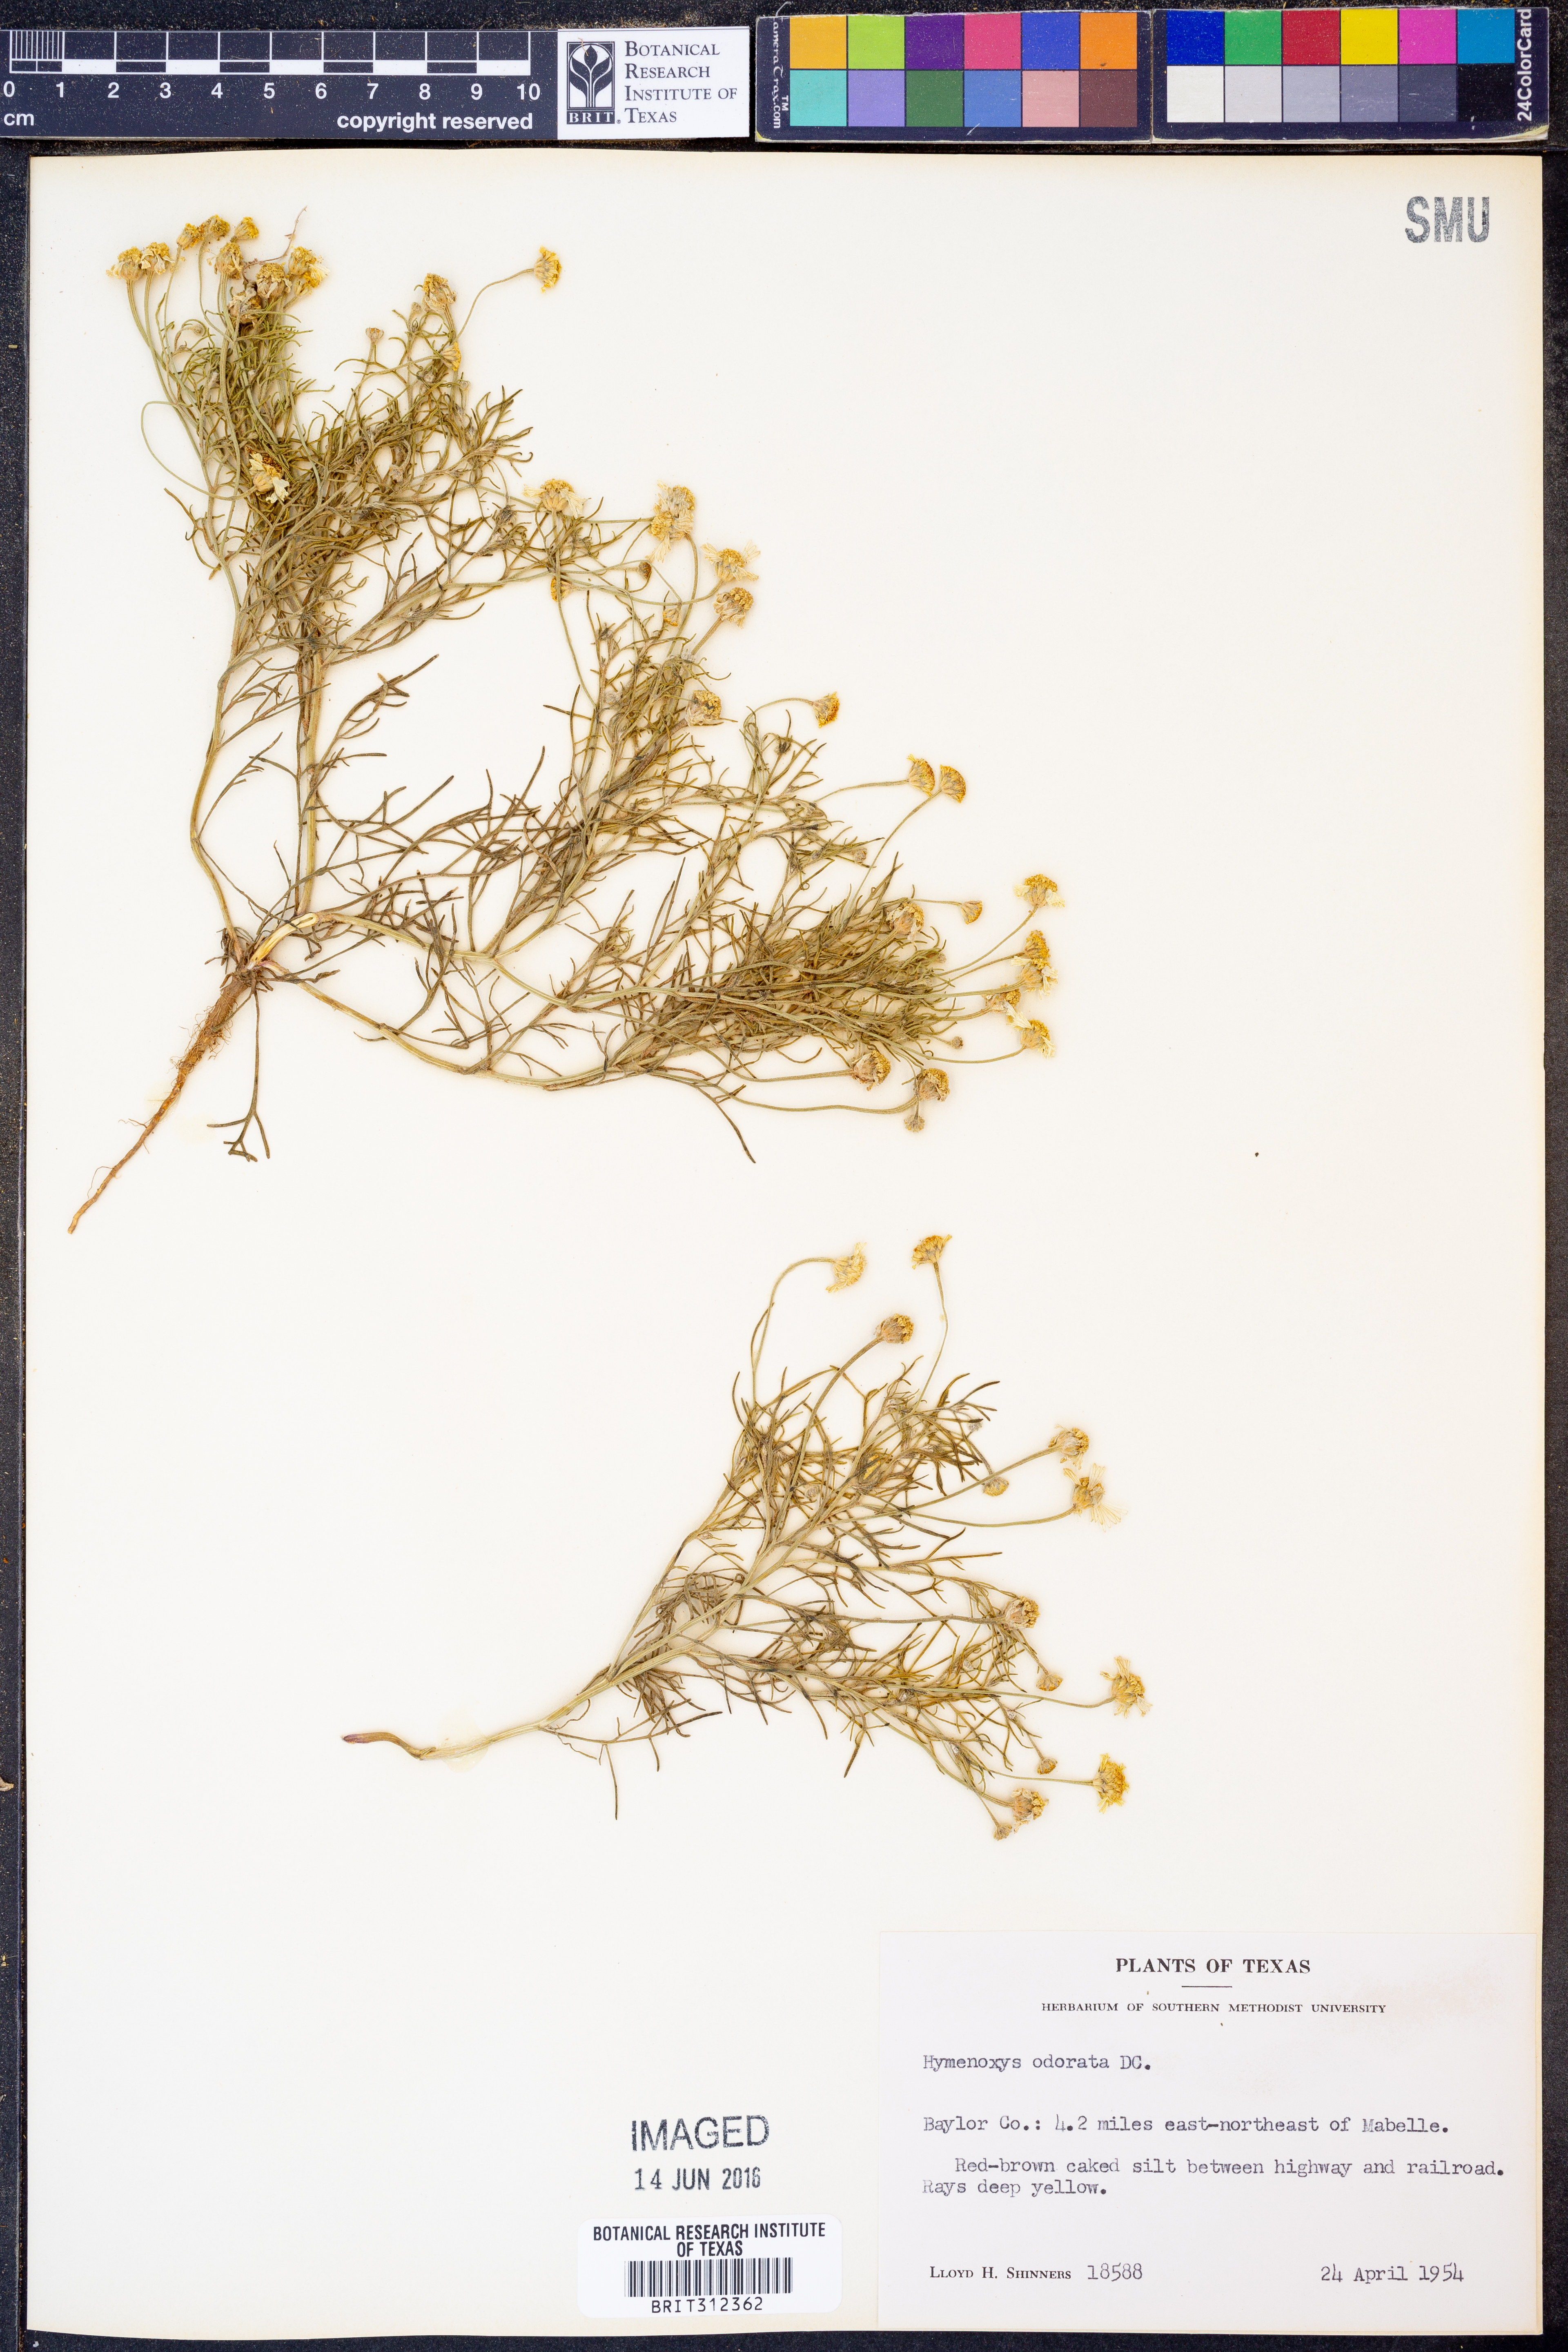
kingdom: Plantae
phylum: Tracheophyta
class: Magnoliopsida
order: Asterales
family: Asteraceae
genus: Hymenoxys
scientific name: Hymenoxys odorata
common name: Bitter rubberweed
